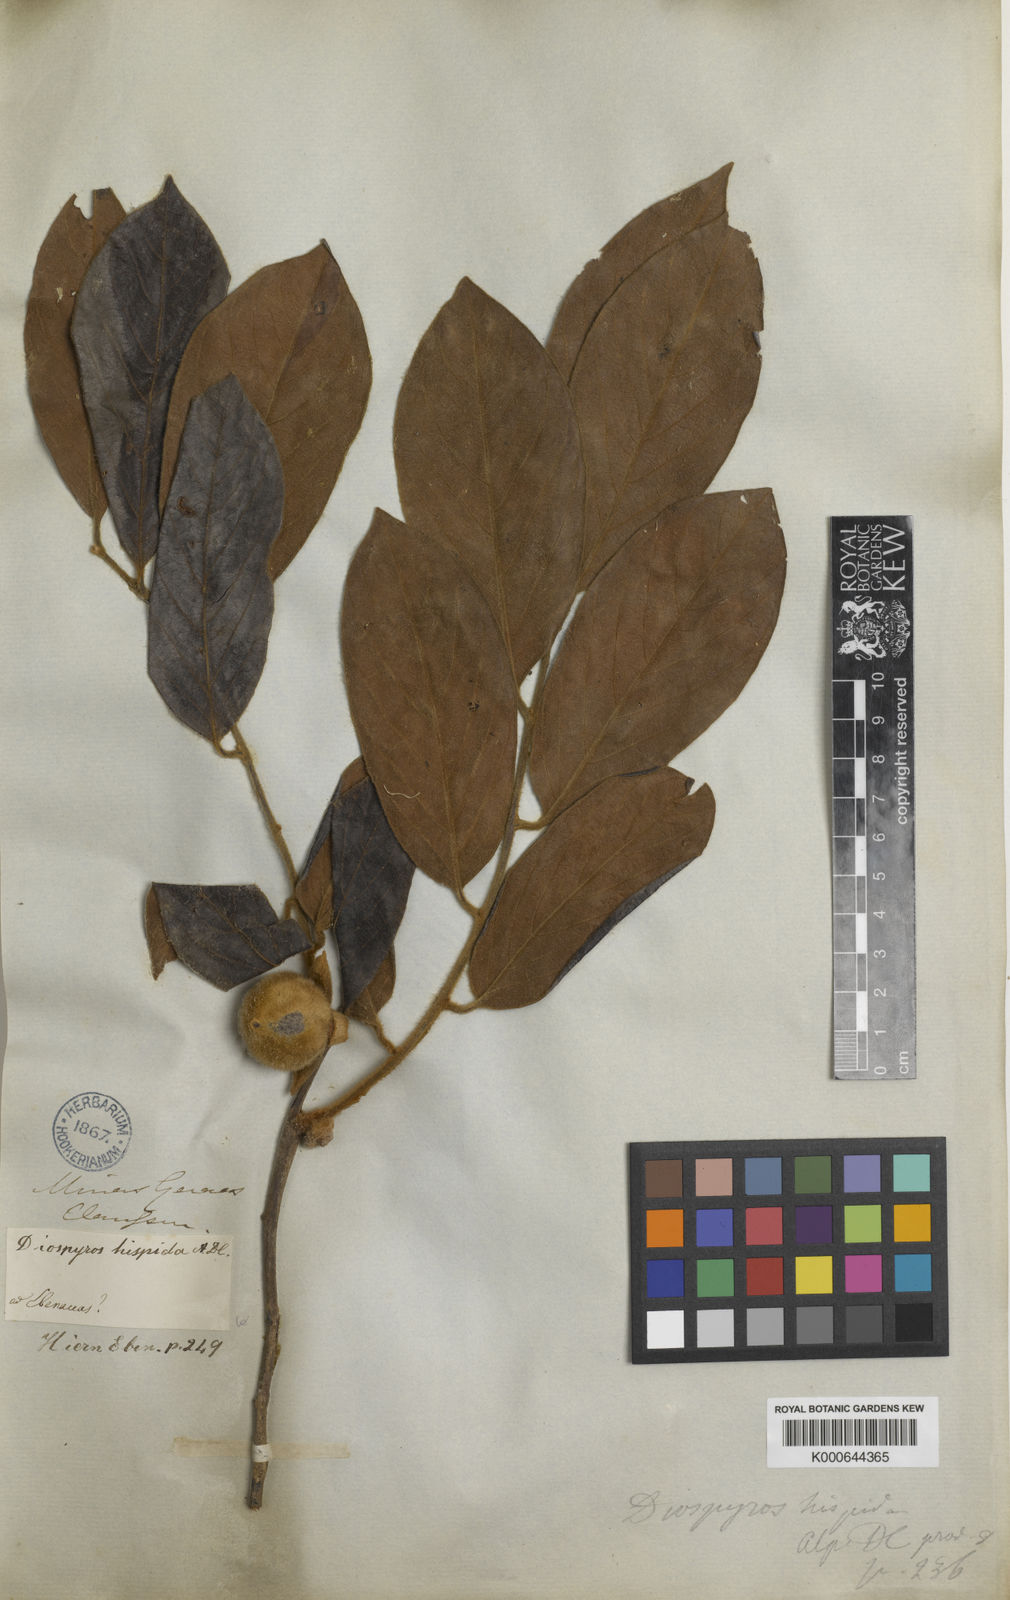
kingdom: Plantae
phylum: Tracheophyta
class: Magnoliopsida
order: Ericales
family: Ebenaceae
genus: Diospyros
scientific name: Diospyros lasiocalyx
